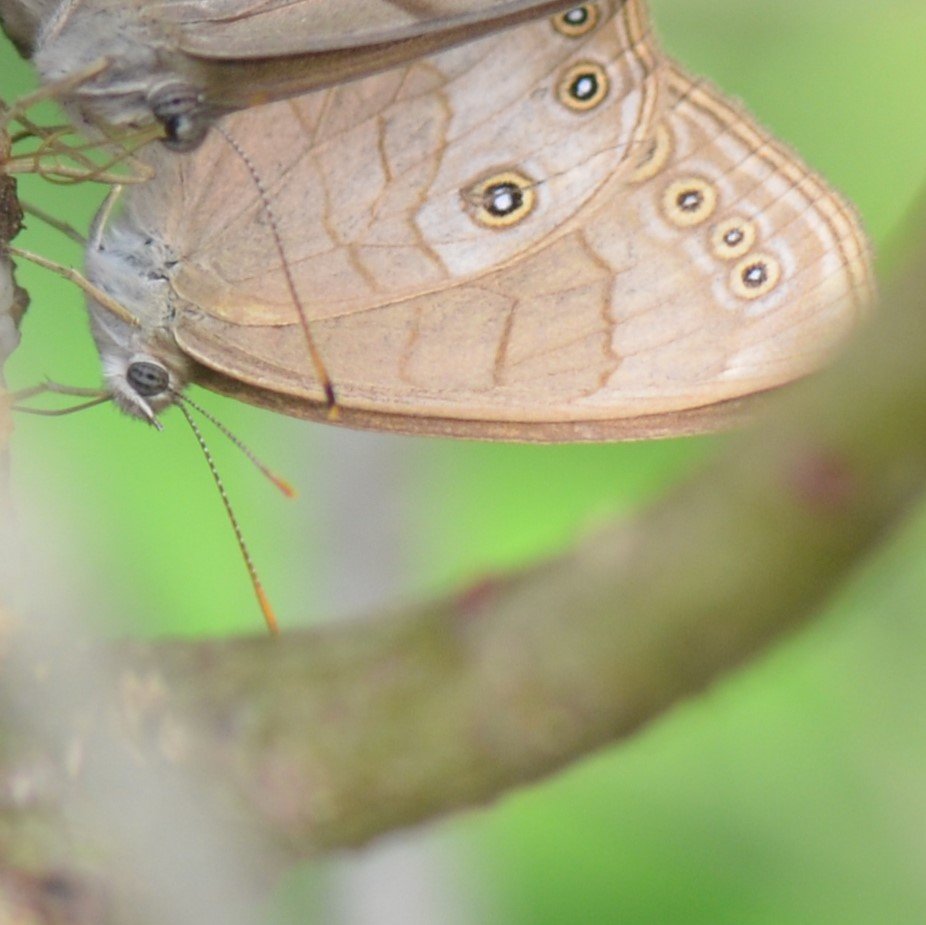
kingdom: Animalia
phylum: Arthropoda
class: Insecta
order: Lepidoptera
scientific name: Lepidoptera
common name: Butterflies
